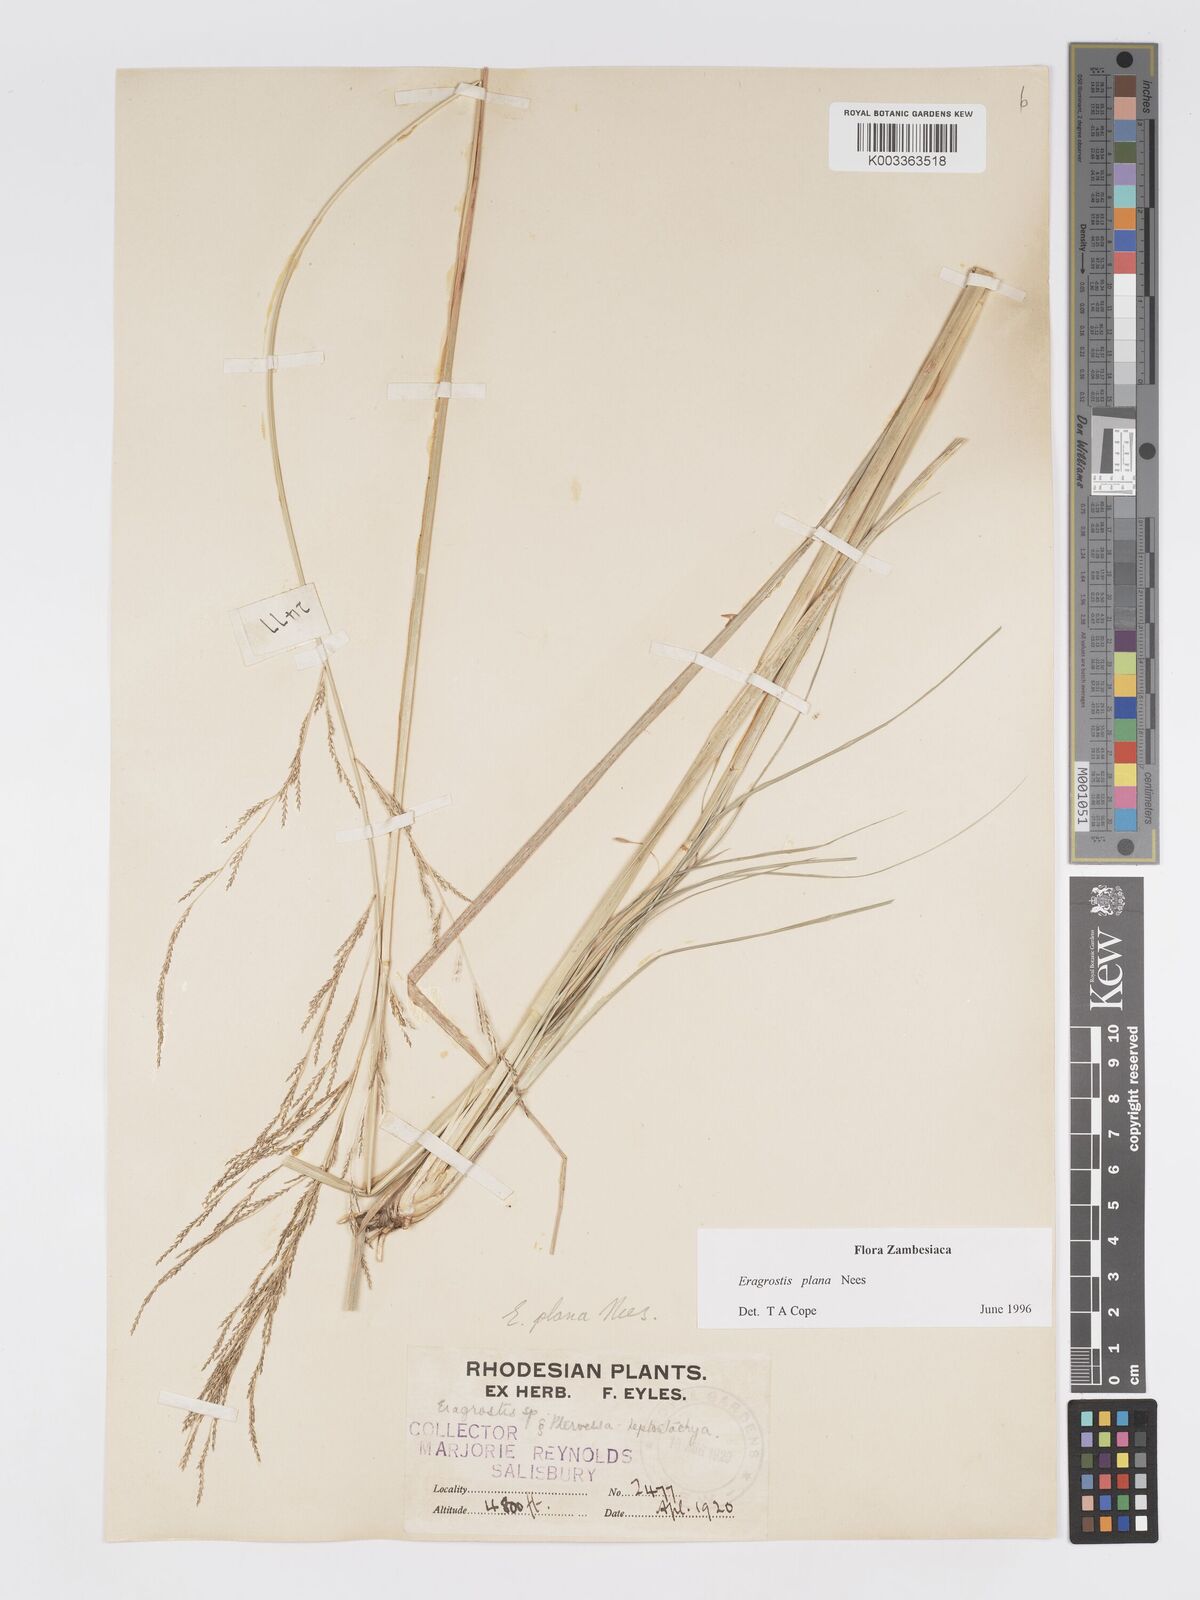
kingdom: Plantae
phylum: Tracheophyta
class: Liliopsida
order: Poales
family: Poaceae
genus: Eragrostis
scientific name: Eragrostis plana
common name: South african lovegrass
